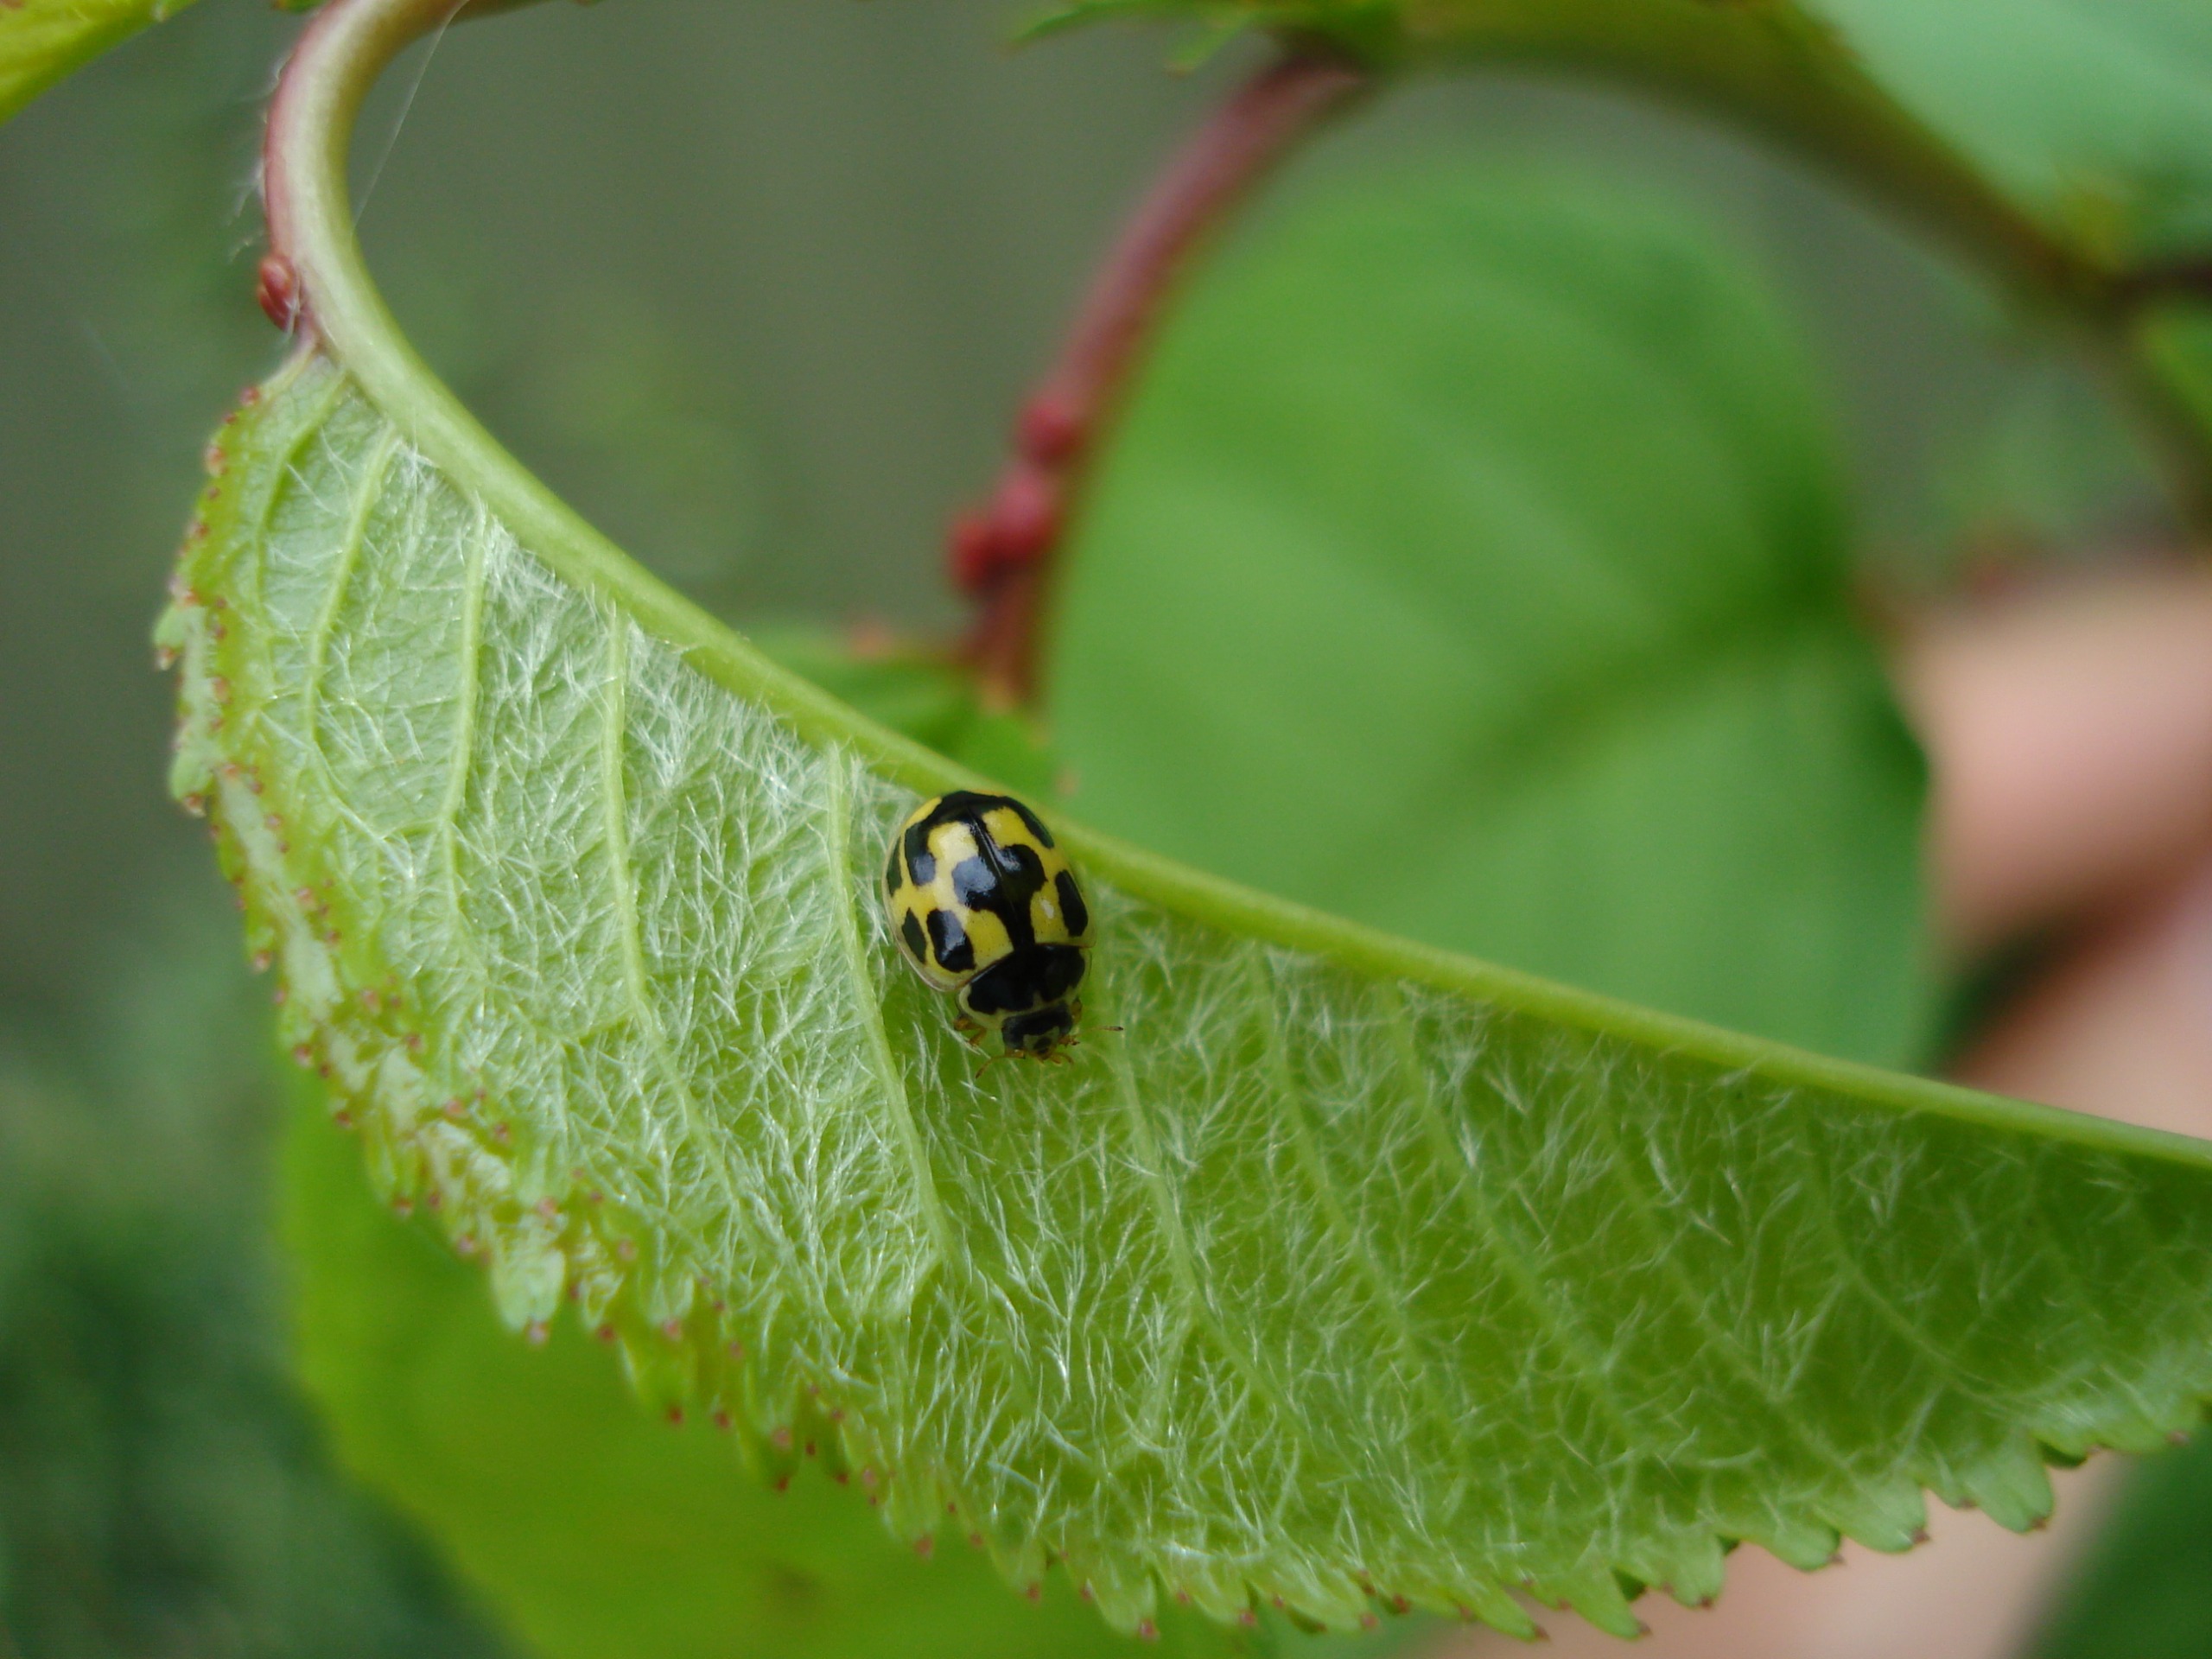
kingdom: Animalia
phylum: Arthropoda
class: Insecta
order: Coleoptera
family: Coccinellidae
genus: Propylaea
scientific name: Propylaea quatuordecimpunctata
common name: Skakbræt
